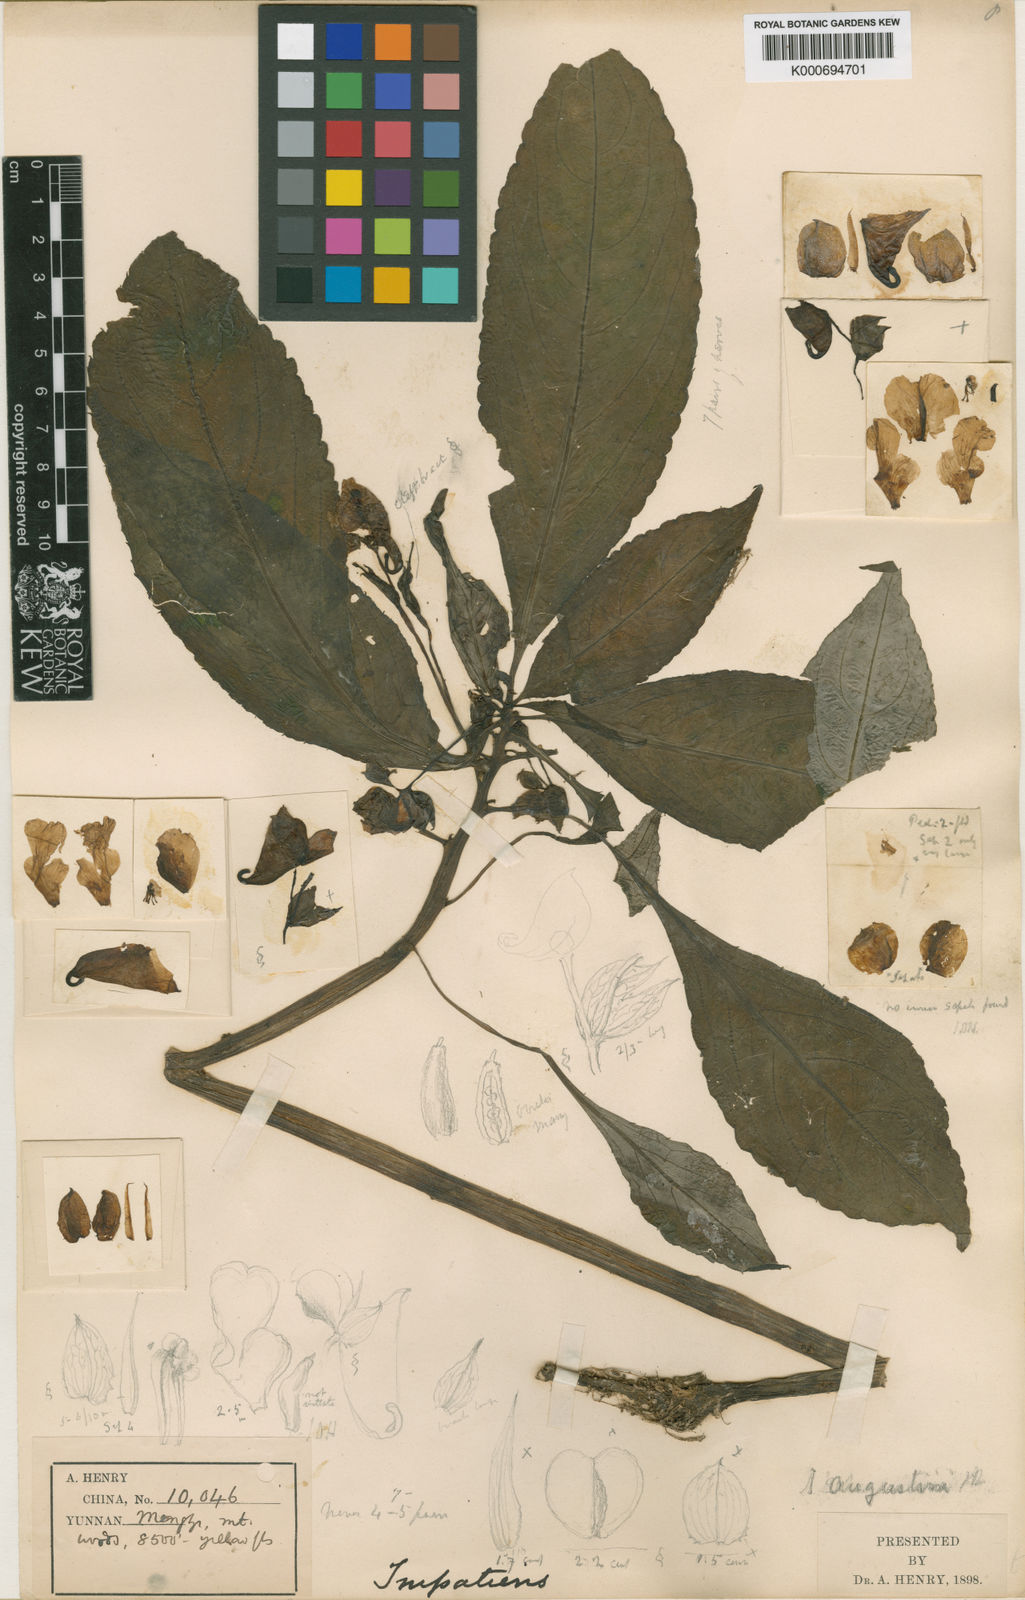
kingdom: Plantae
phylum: Tracheophyta
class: Magnoliopsida
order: Ericales
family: Balsaminaceae
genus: Impatiens
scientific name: Impatiens
